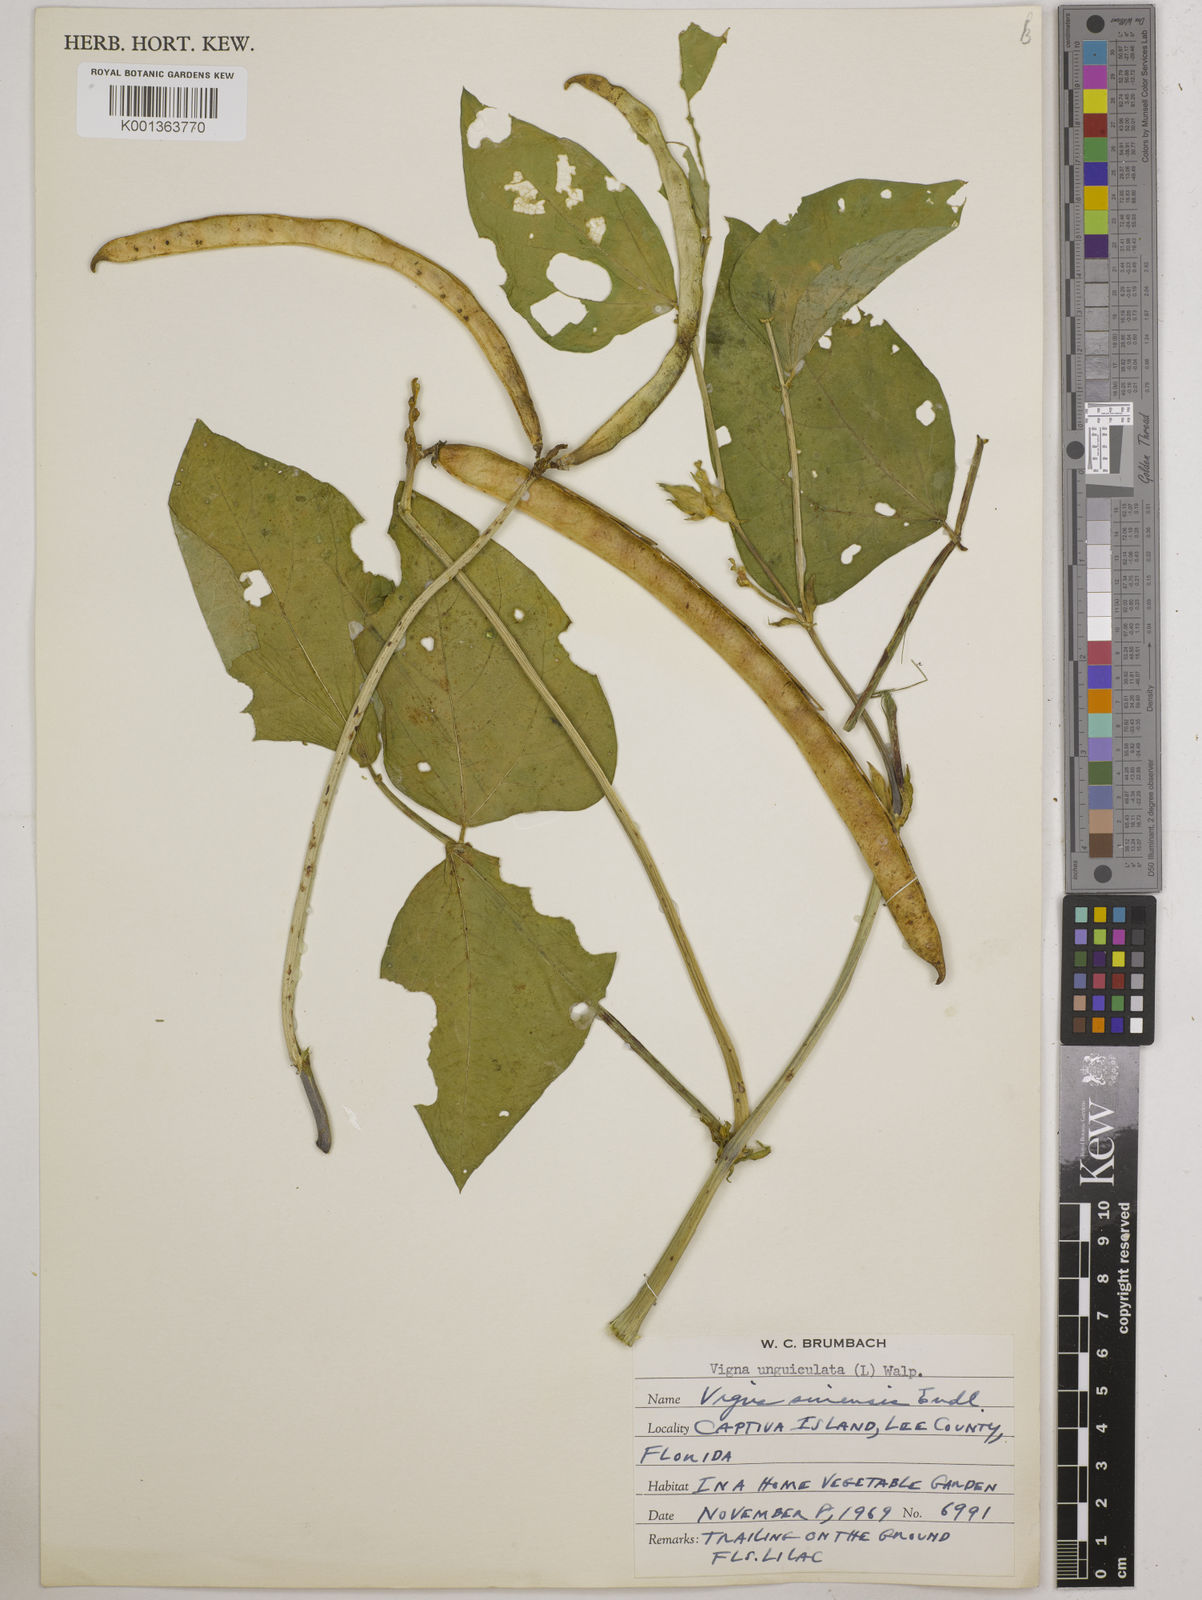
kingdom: Plantae
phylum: Tracheophyta
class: Magnoliopsida
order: Fabales
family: Fabaceae
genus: Vigna
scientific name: Vigna unguiculata
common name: Cowpea
